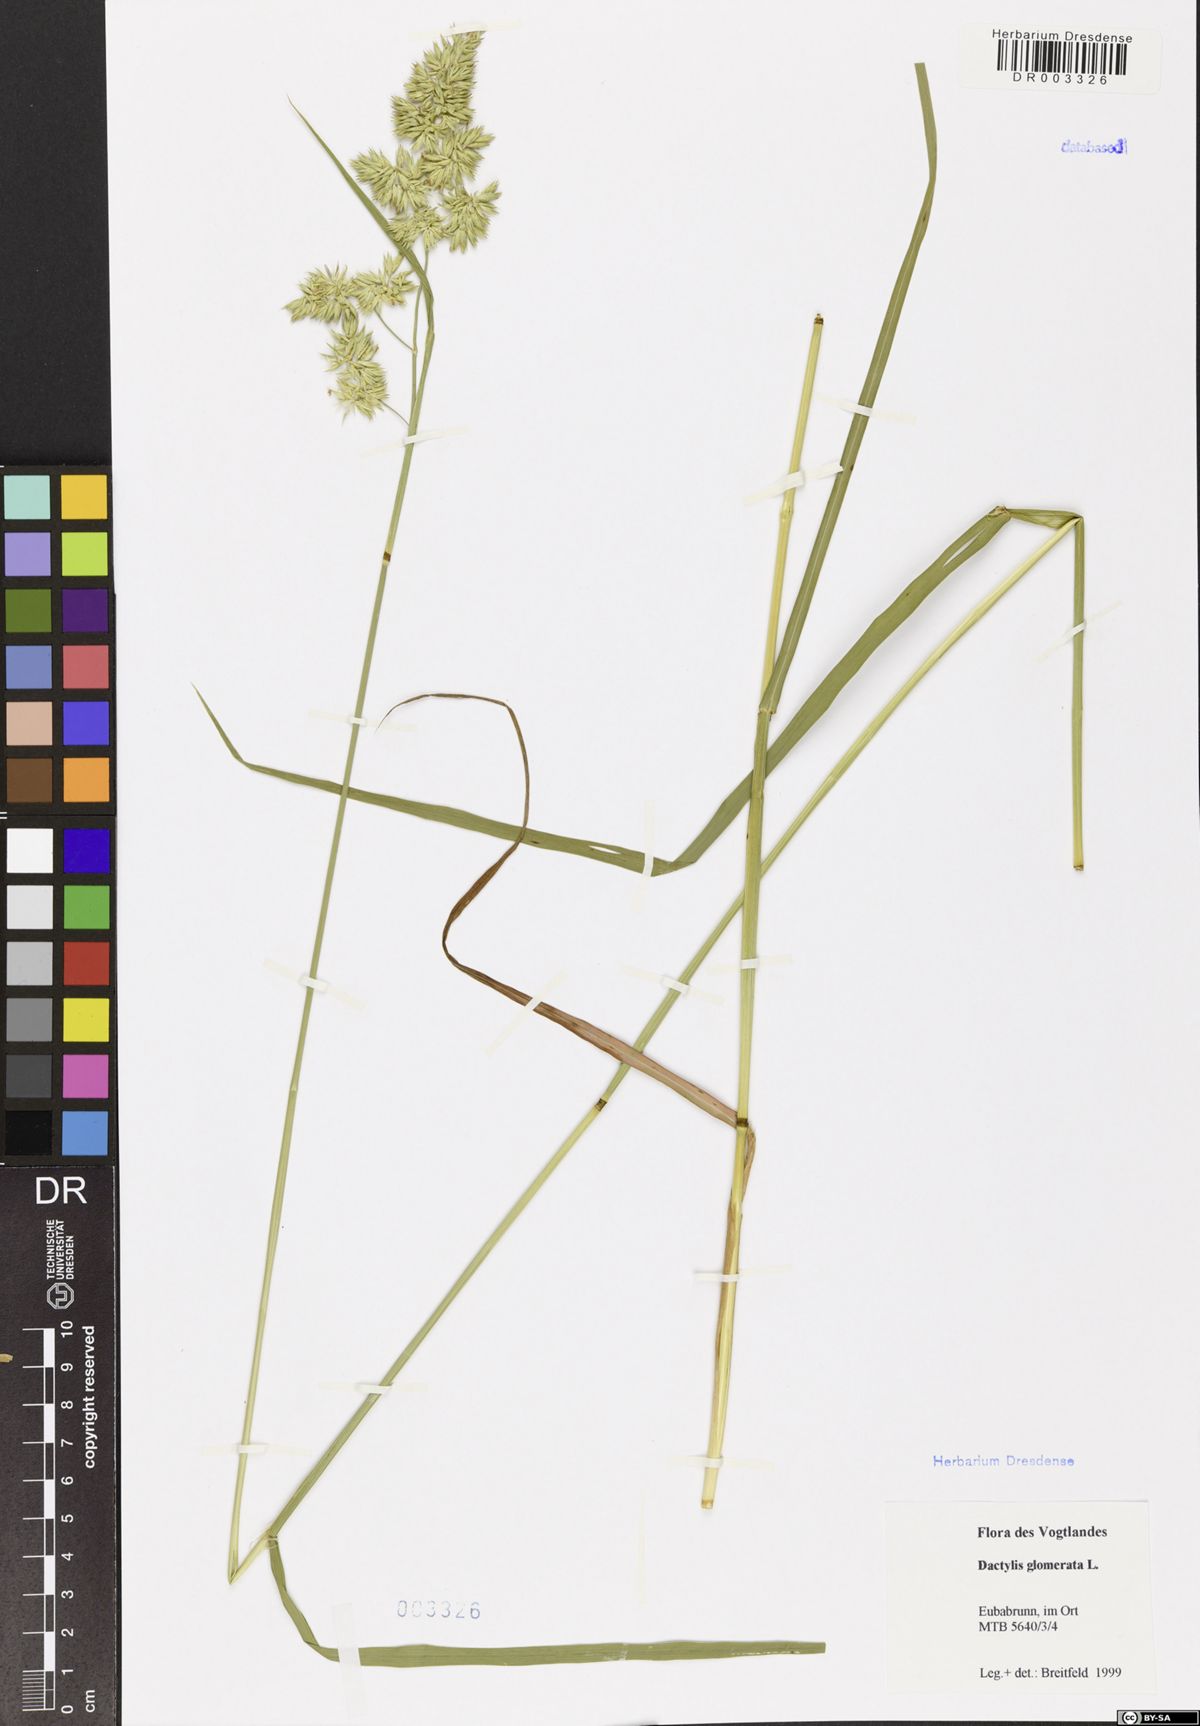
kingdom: Plantae
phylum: Tracheophyta
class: Liliopsida
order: Poales
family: Poaceae
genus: Dactylis
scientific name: Dactylis glomerata
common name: Orchardgrass
